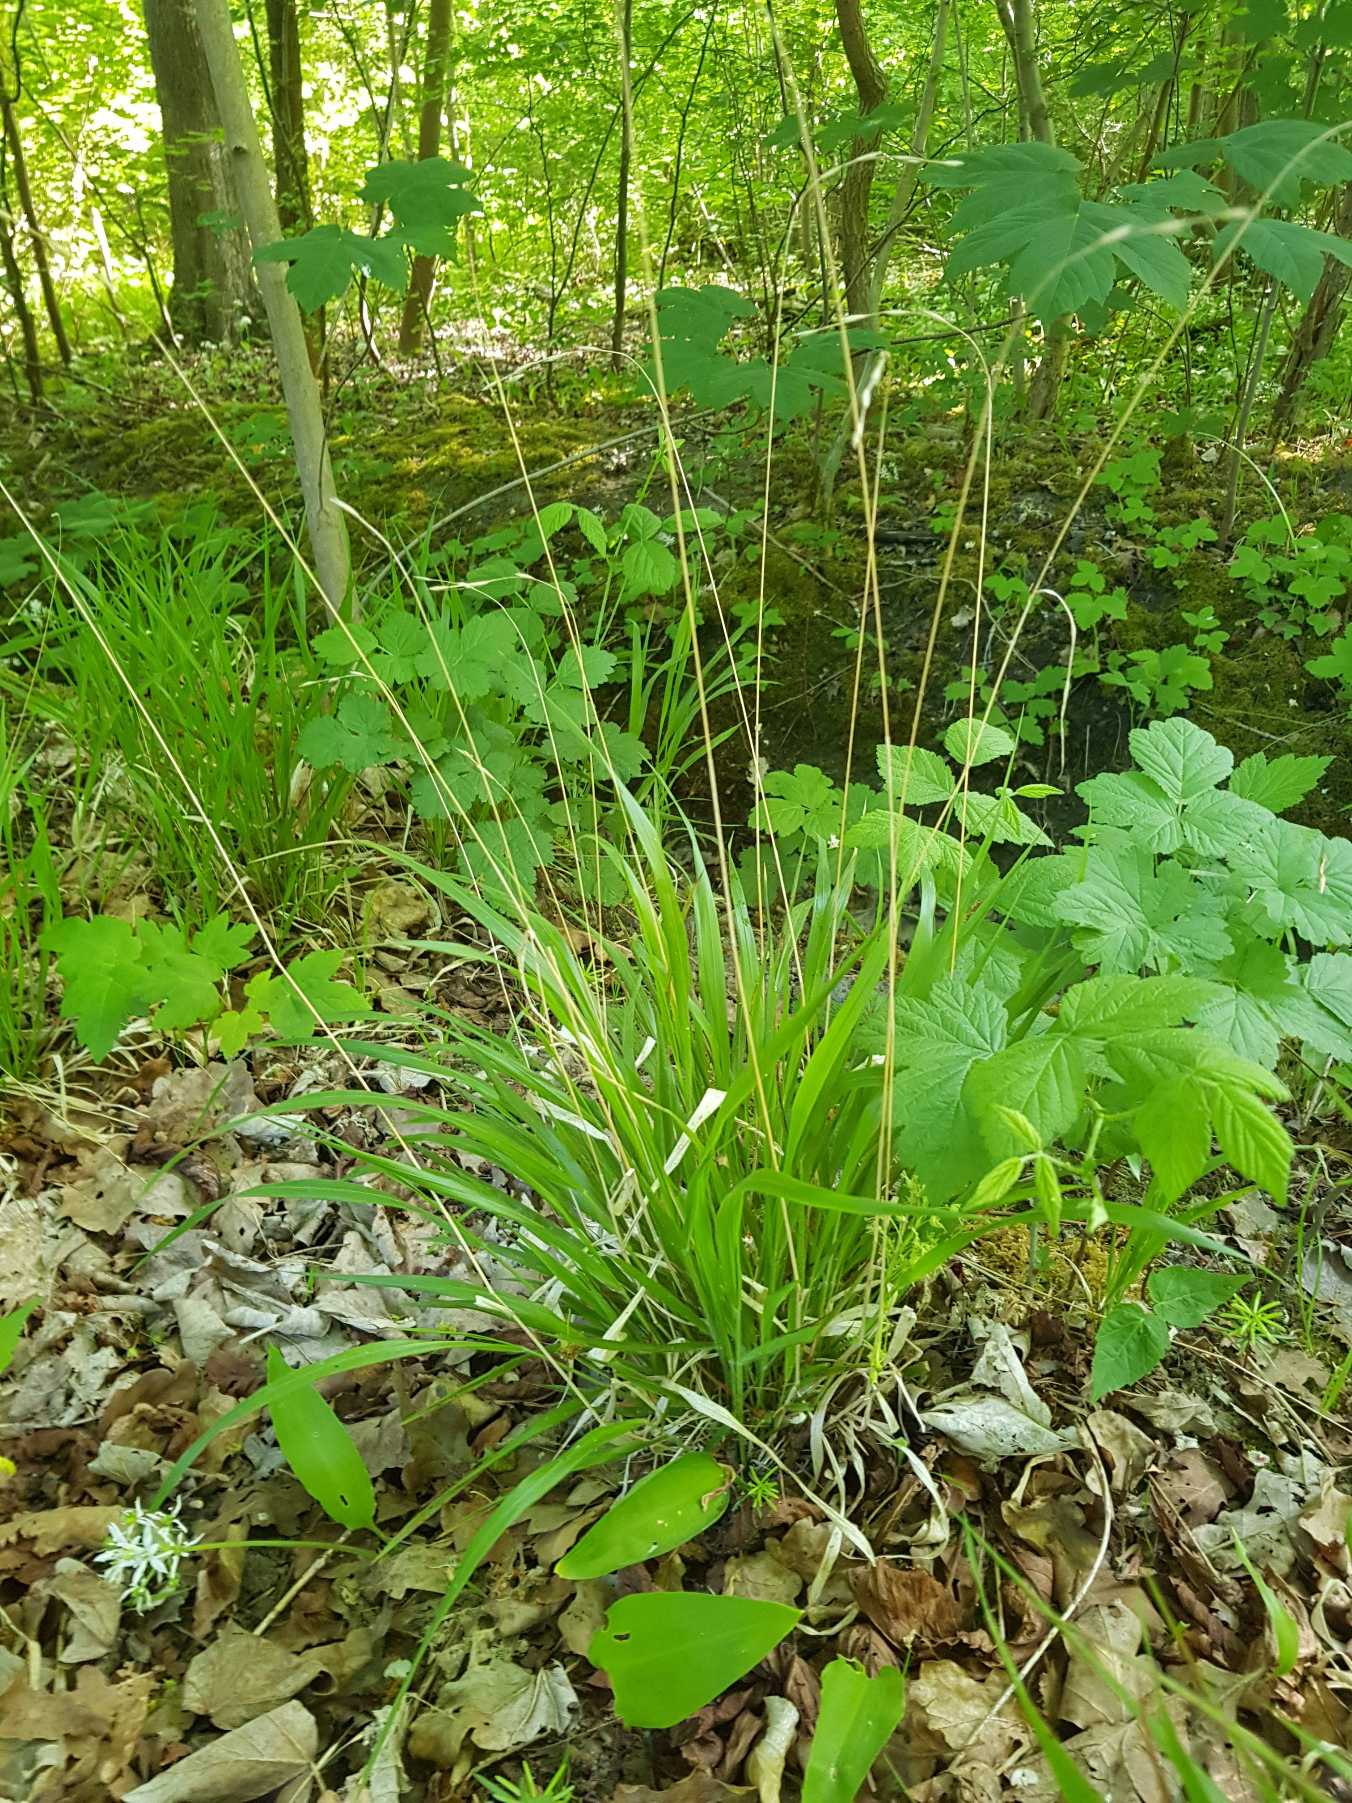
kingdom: Plantae
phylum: Tracheophyta
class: Liliopsida
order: Poales
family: Poaceae
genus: Brachypodium
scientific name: Brachypodium sylvaticum
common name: Skov-stilkaks
